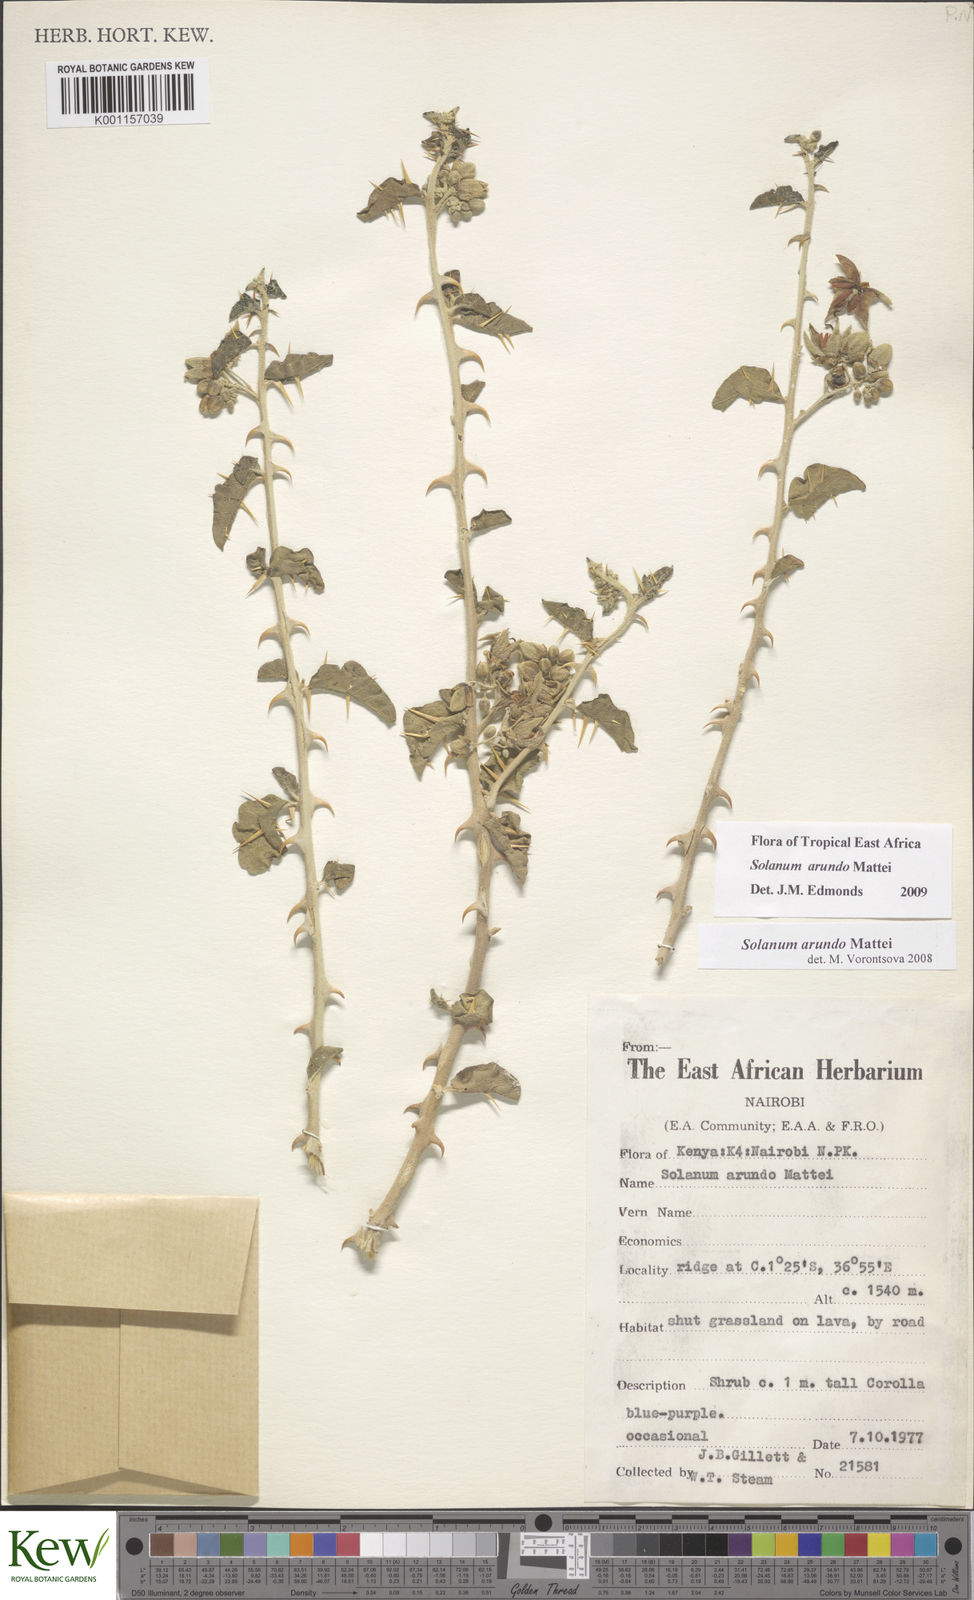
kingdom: Plantae
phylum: Tracheophyta
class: Magnoliopsida
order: Solanales
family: Solanaceae
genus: Solanum
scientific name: Solanum arundo
